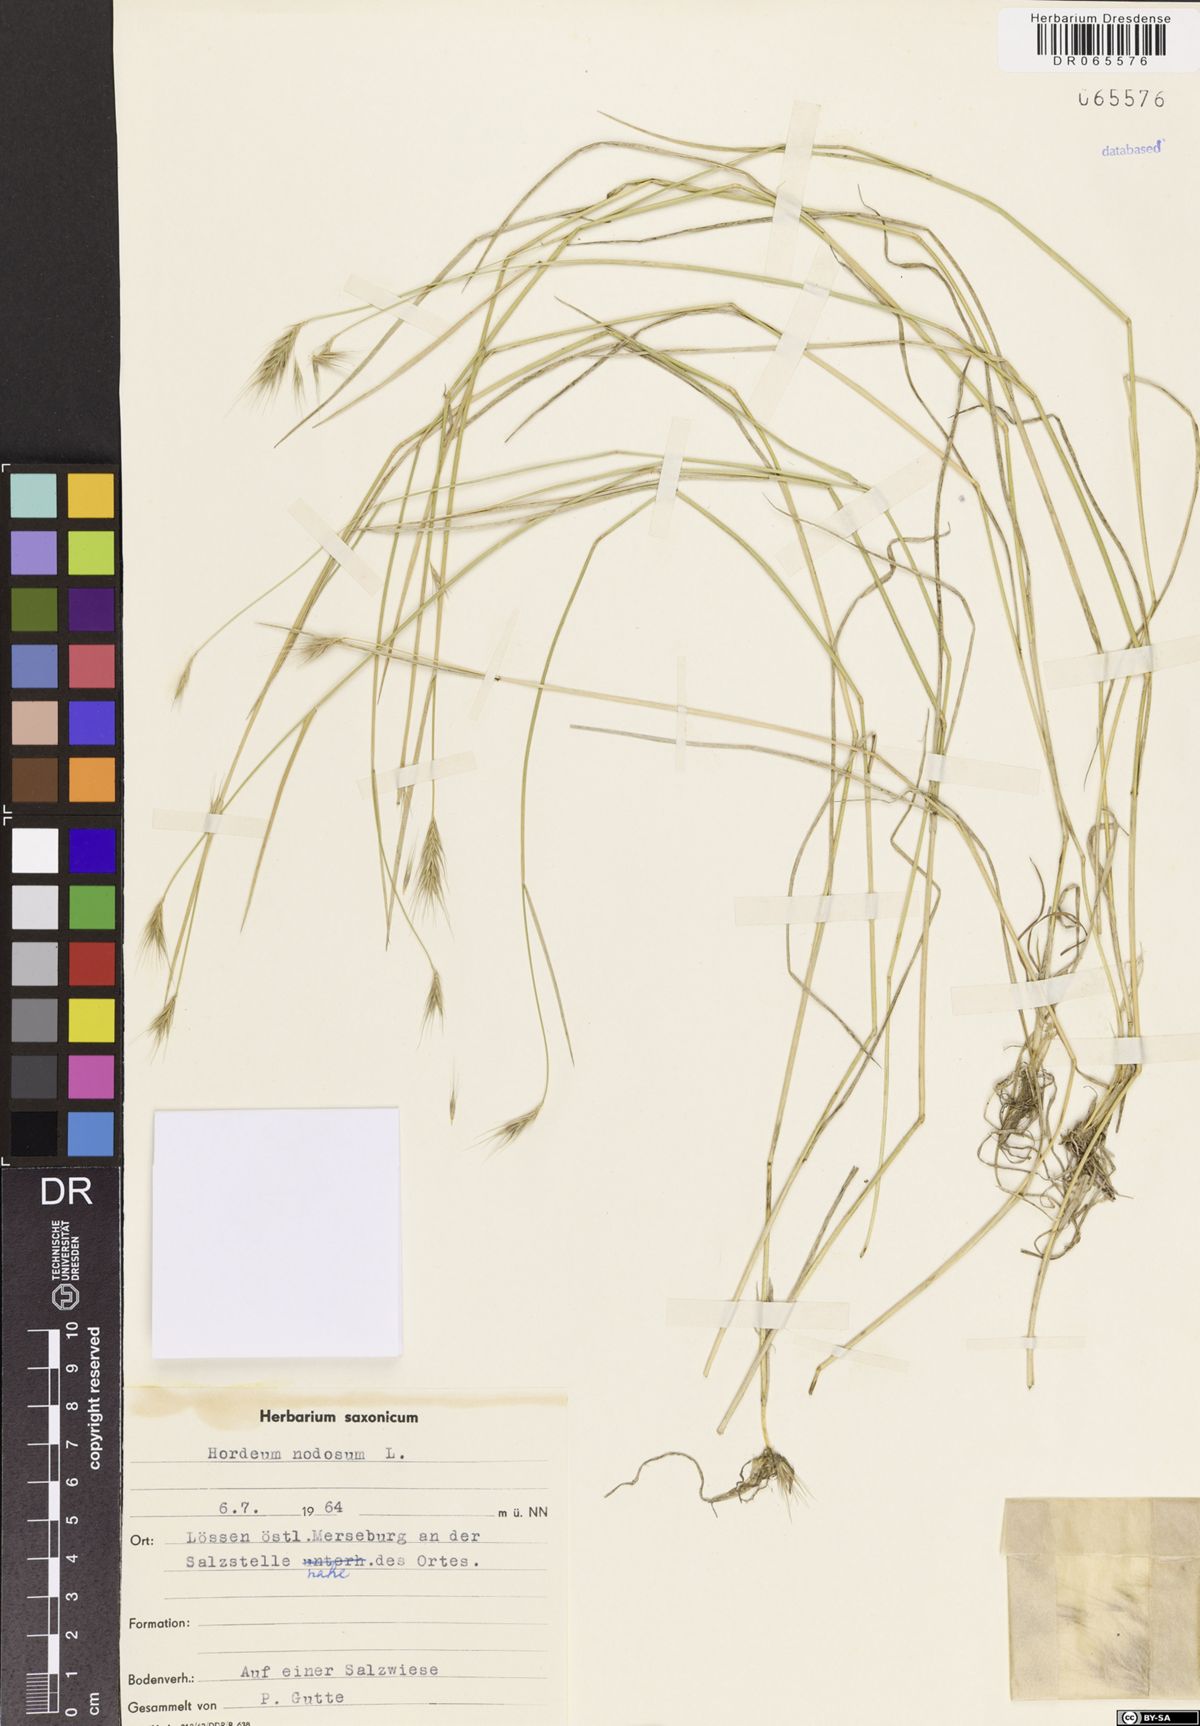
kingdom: Plantae
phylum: Tracheophyta
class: Liliopsida
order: Poales
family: Poaceae
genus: Hordeum
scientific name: Hordeum bulbosum
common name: Bulbous barley
